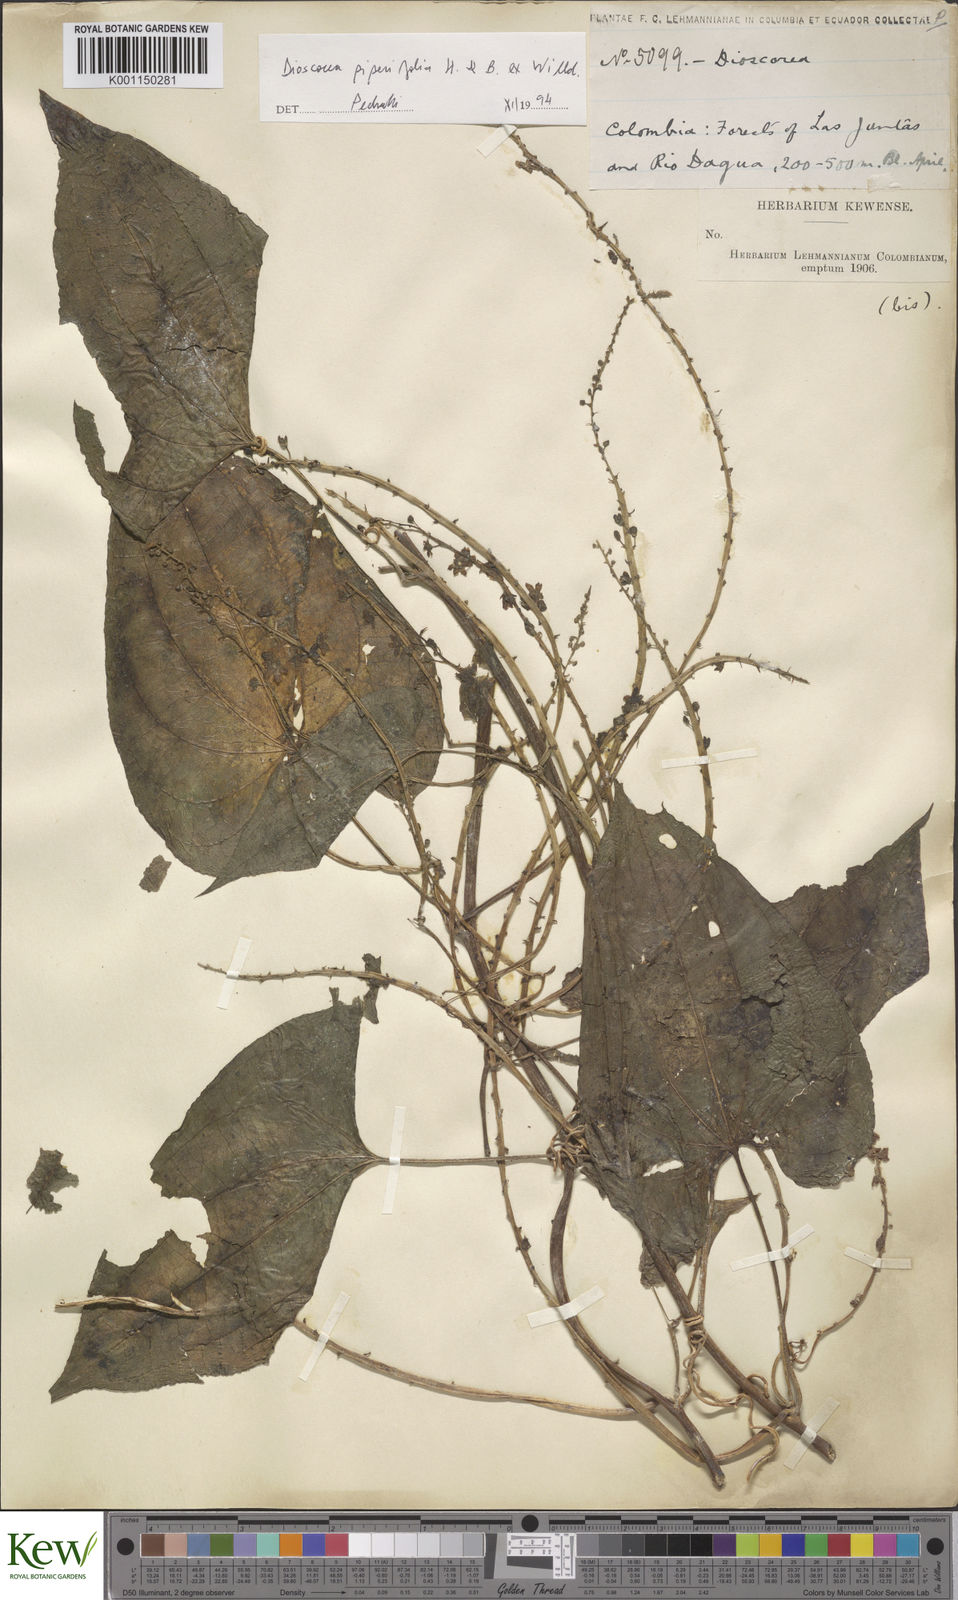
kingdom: Plantae
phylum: Tracheophyta
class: Liliopsida
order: Dioscoreales
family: Dioscoreaceae
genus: Dioscorea
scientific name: Dioscorea glandulosa
